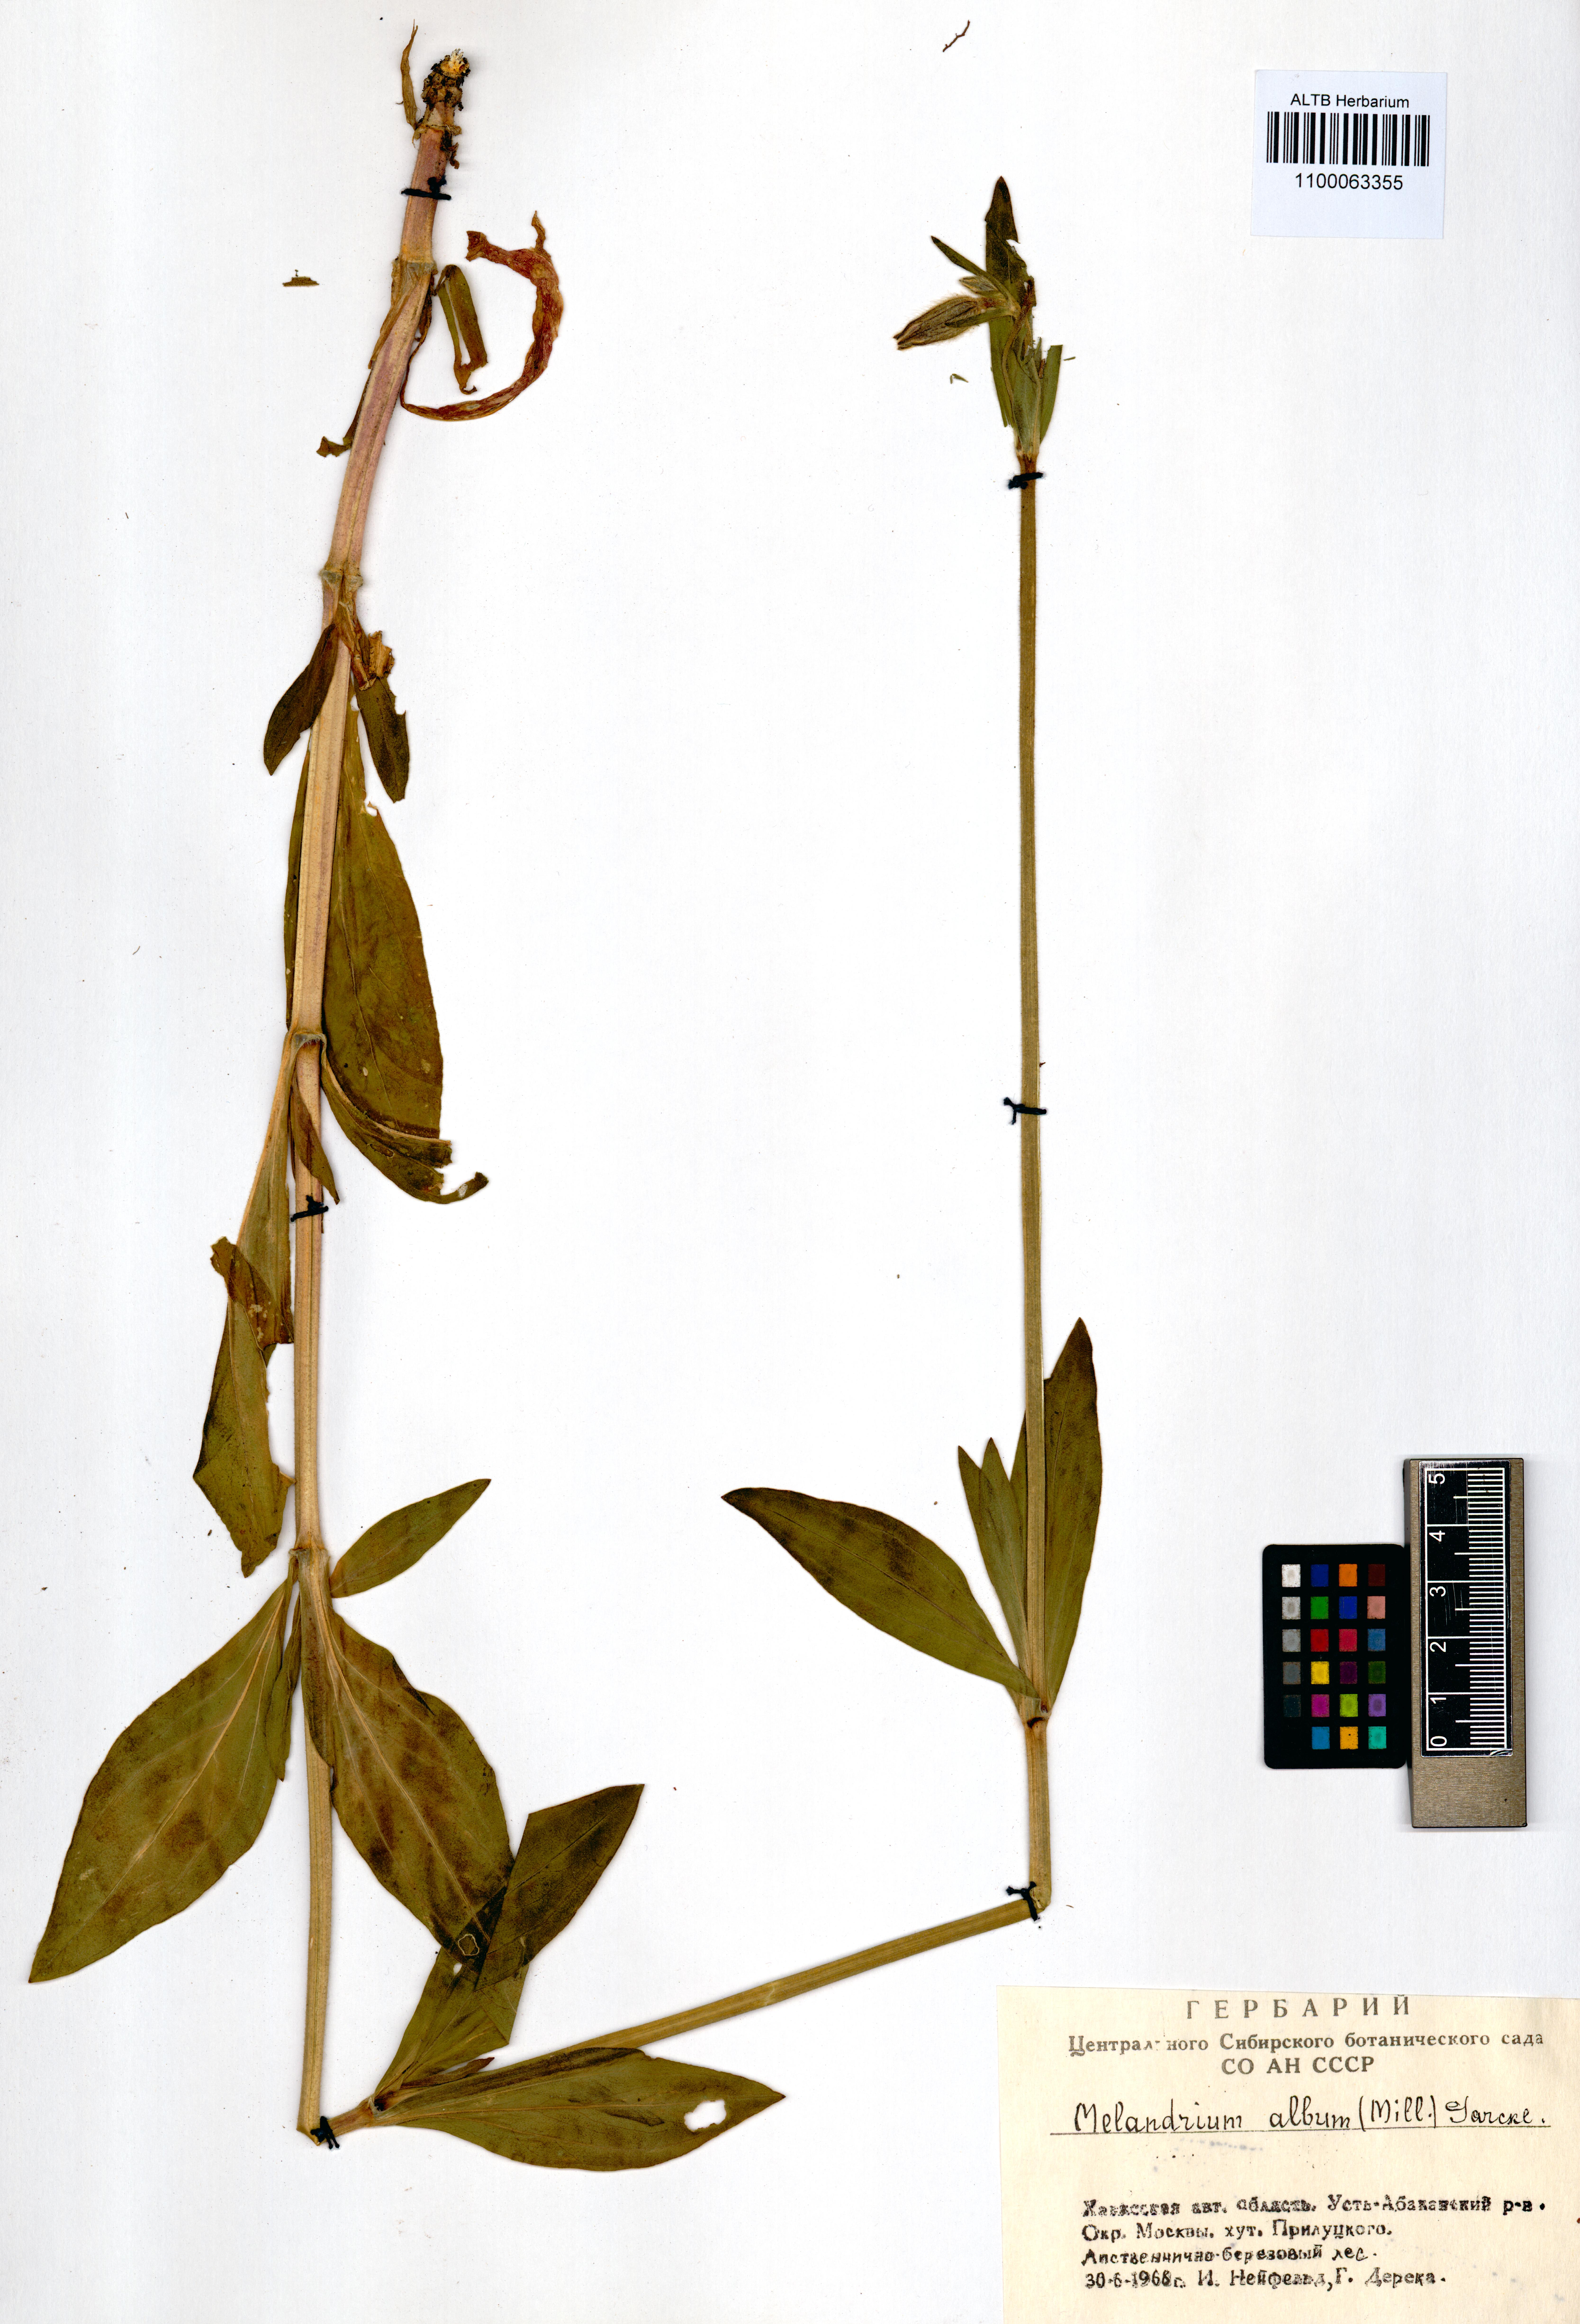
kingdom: Plantae
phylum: Tracheophyta
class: Magnoliopsida
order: Caryophyllales
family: Caryophyllaceae
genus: Silene
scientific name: Silene latifolia
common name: White campion
